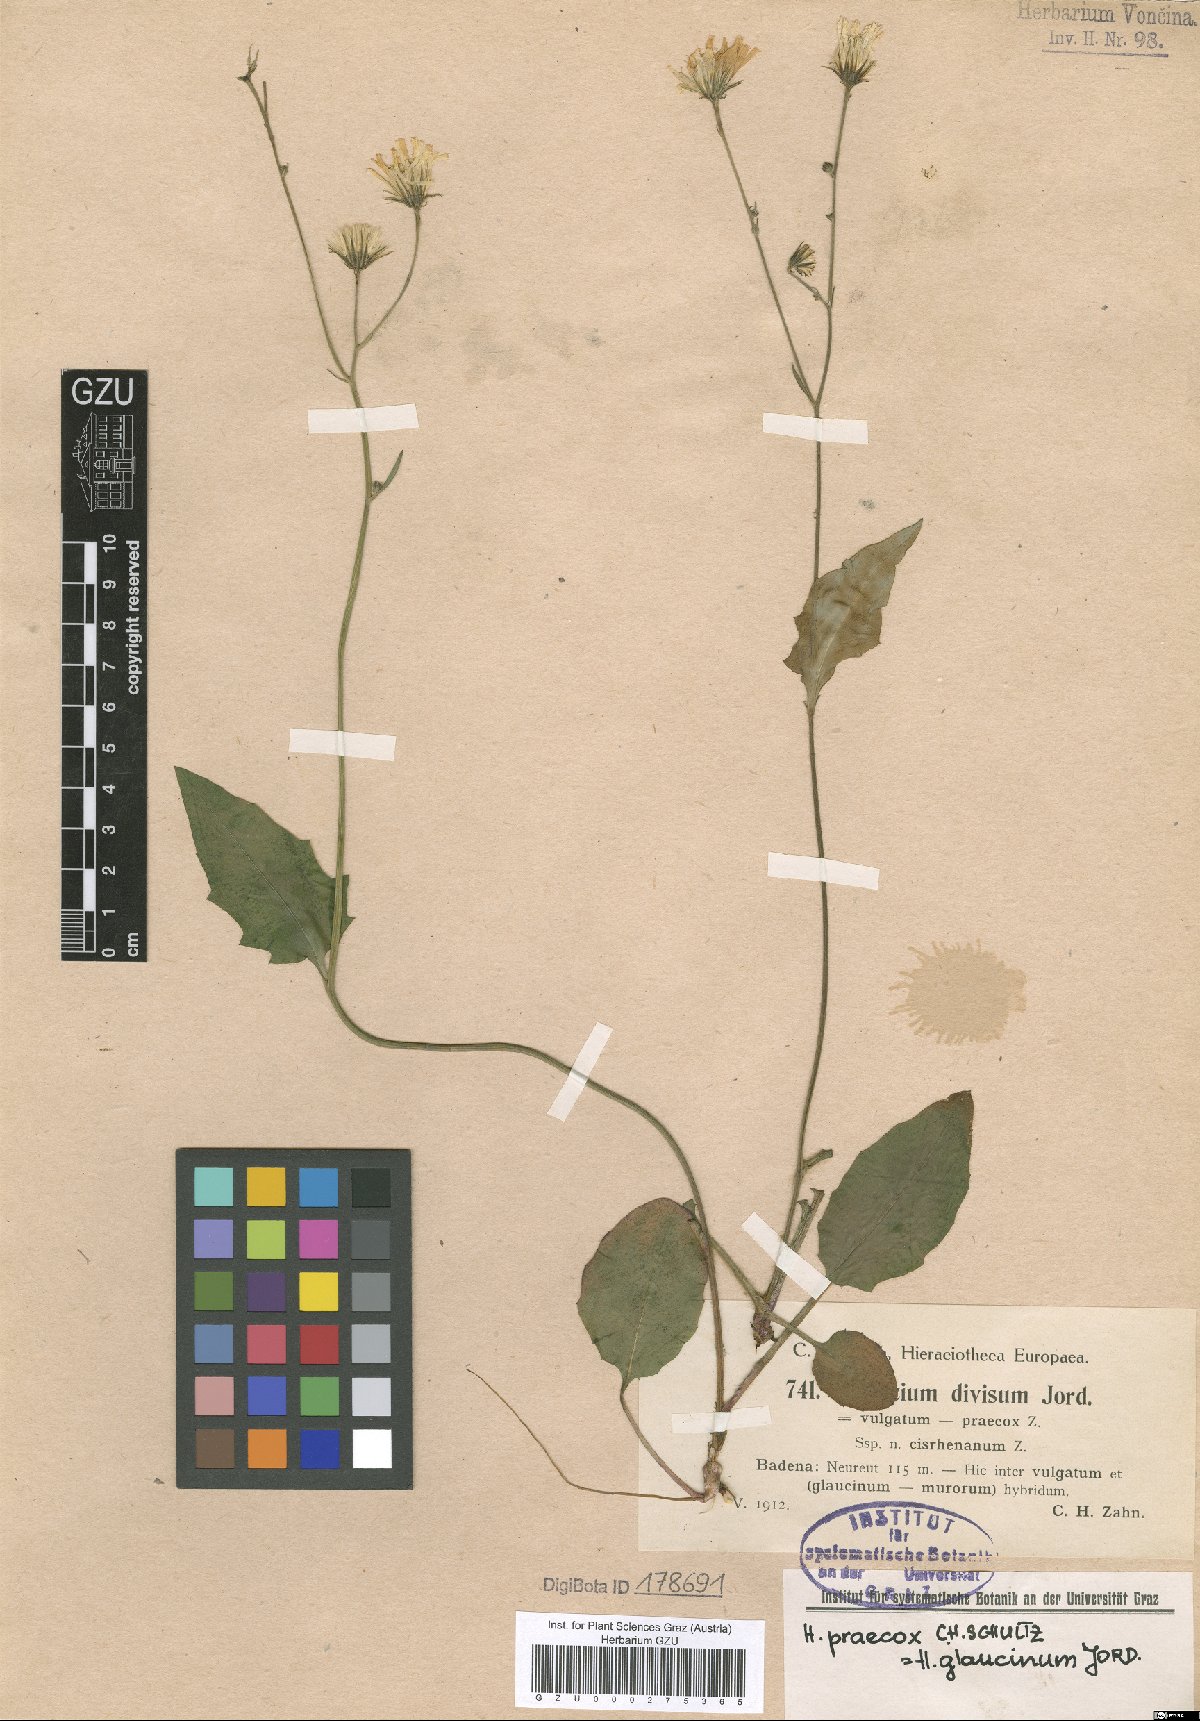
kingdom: Plantae
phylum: Tracheophyta
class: Magnoliopsida
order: Asterales
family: Asteraceae
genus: Hieracium
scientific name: Hieracium maculatum
